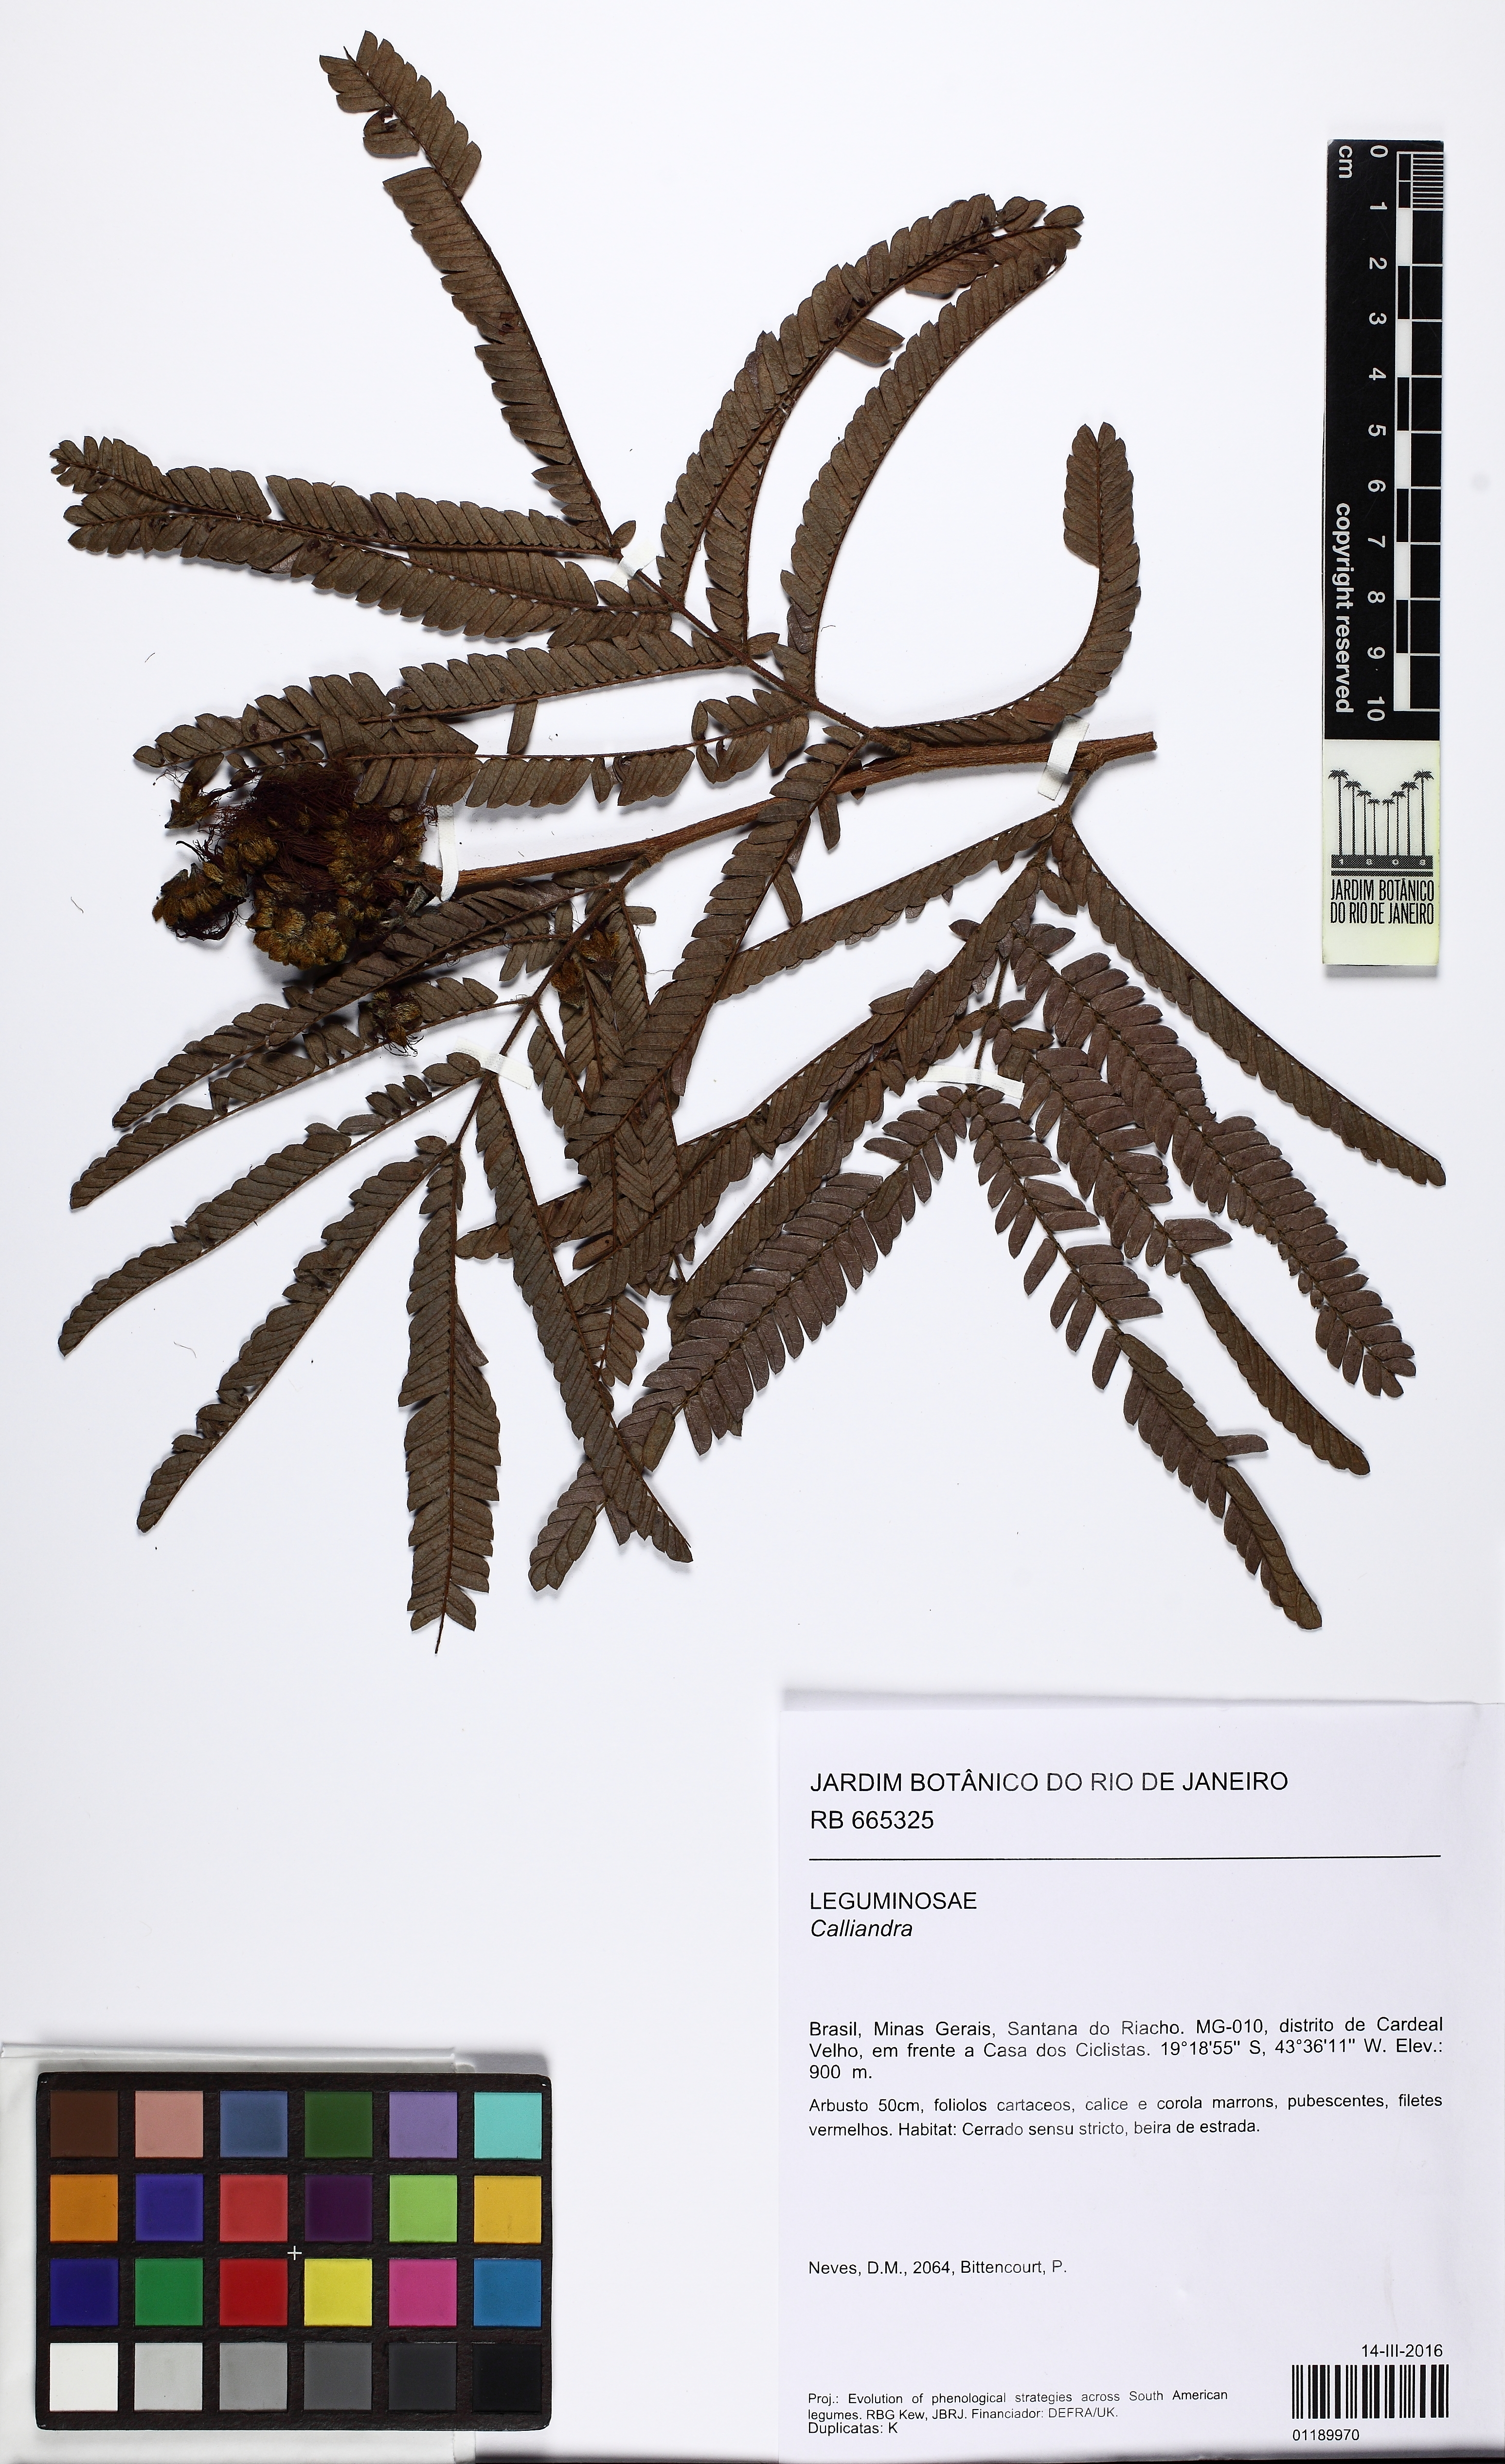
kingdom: Plantae
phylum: Tracheophyta
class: Magnoliopsida
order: Fabales
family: Fabaceae
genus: Calliandra
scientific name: Calliandra
